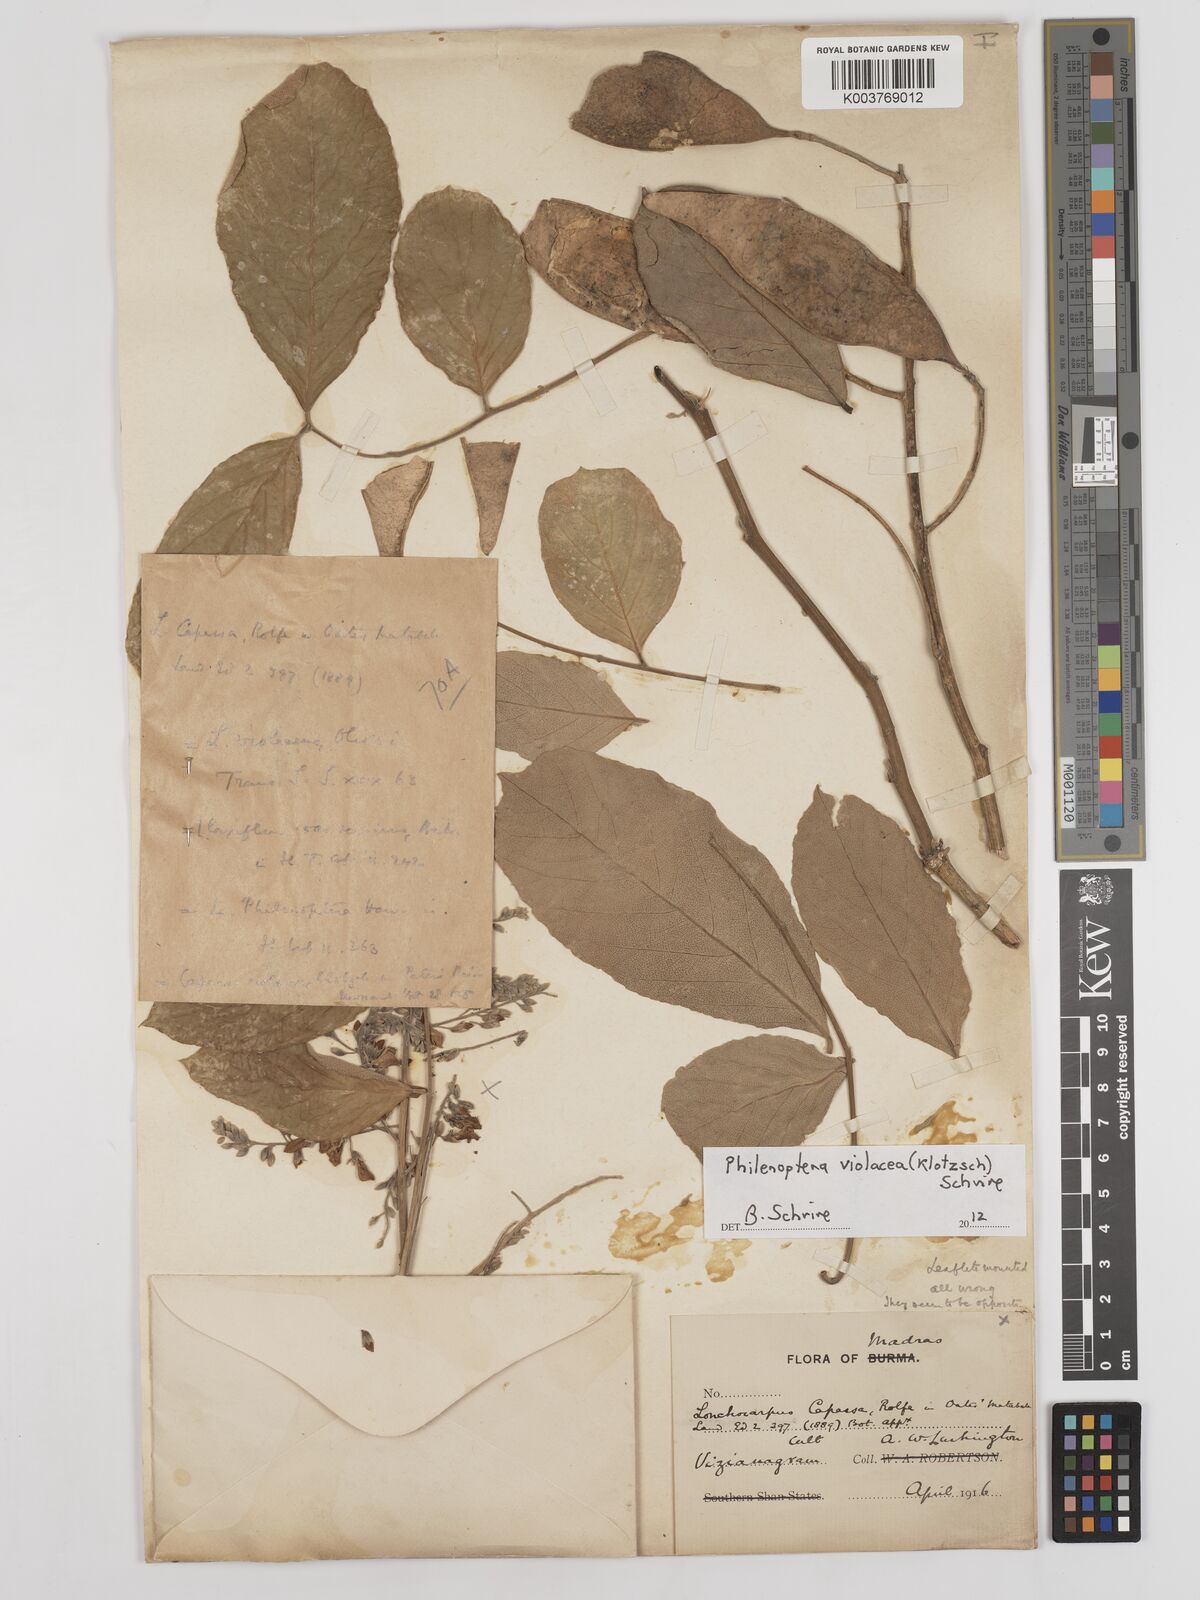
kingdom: Plantae
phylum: Tracheophyta
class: Magnoliopsida
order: Fabales
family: Fabaceae
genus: Philenoptera
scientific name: Philenoptera violacea
